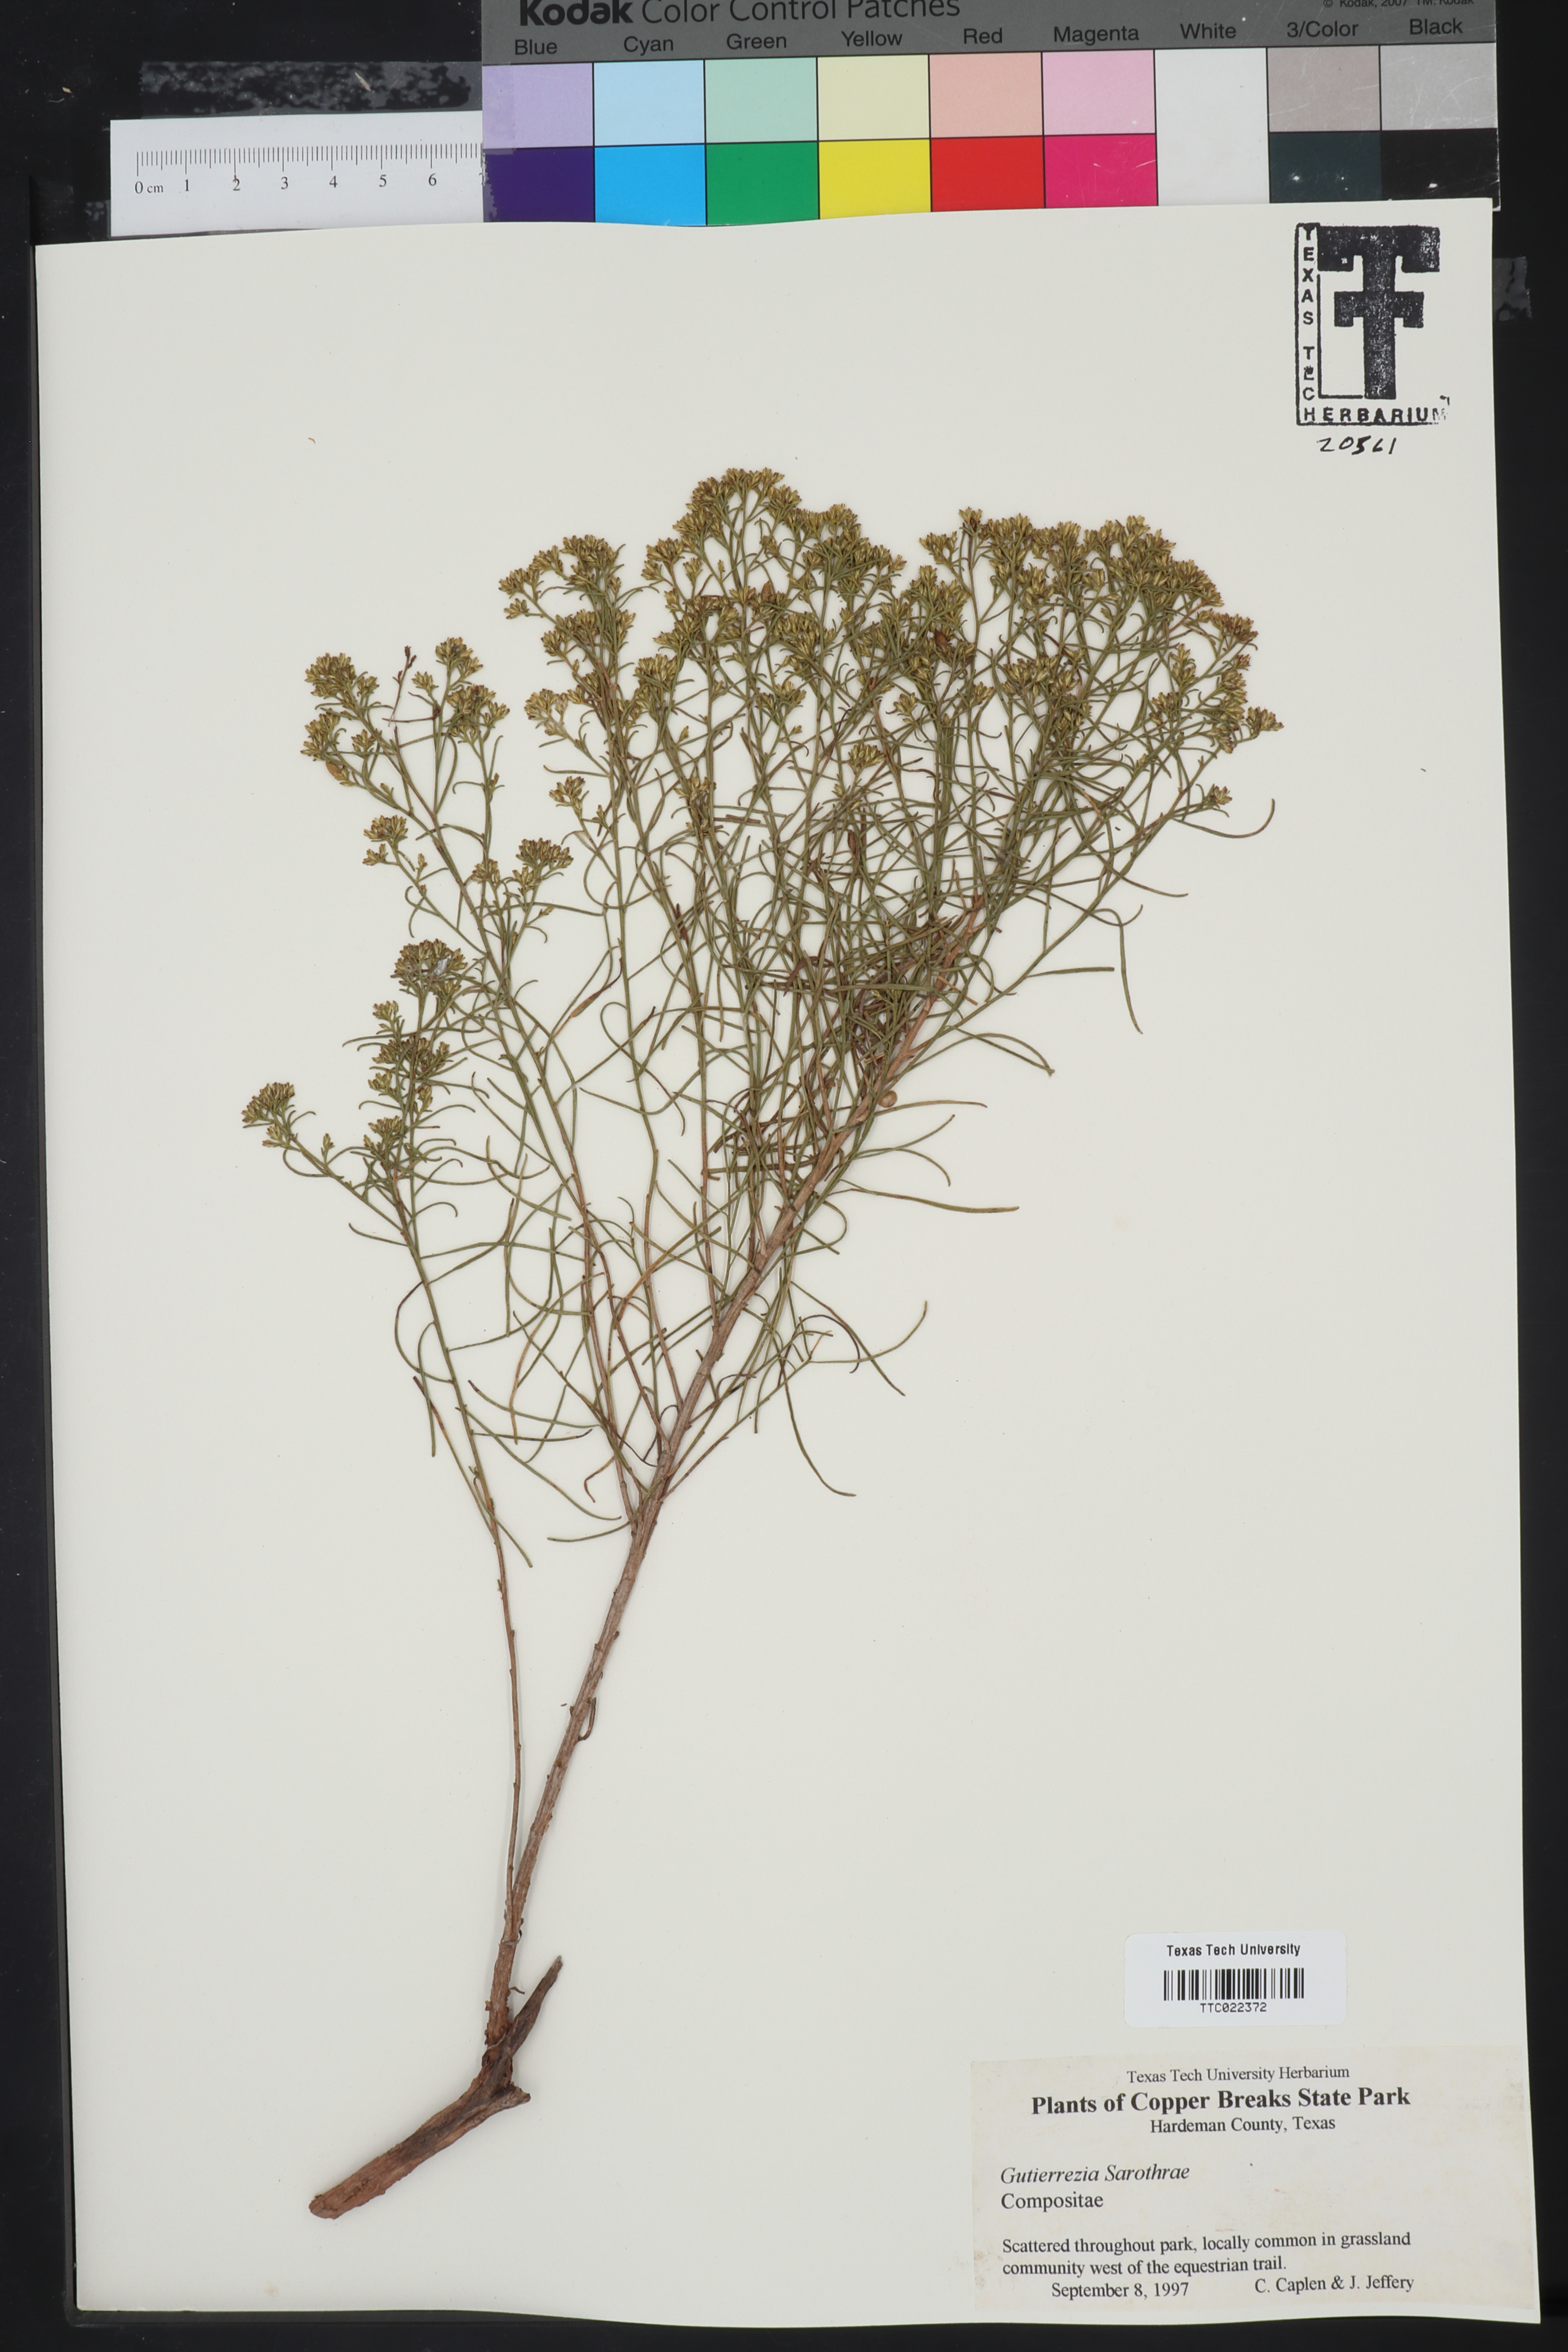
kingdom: Plantae
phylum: Tracheophyta
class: Magnoliopsida
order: Asterales
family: Asteraceae
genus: Gutierrezia
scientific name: Gutierrezia sarothrae
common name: Broom snakeweed
